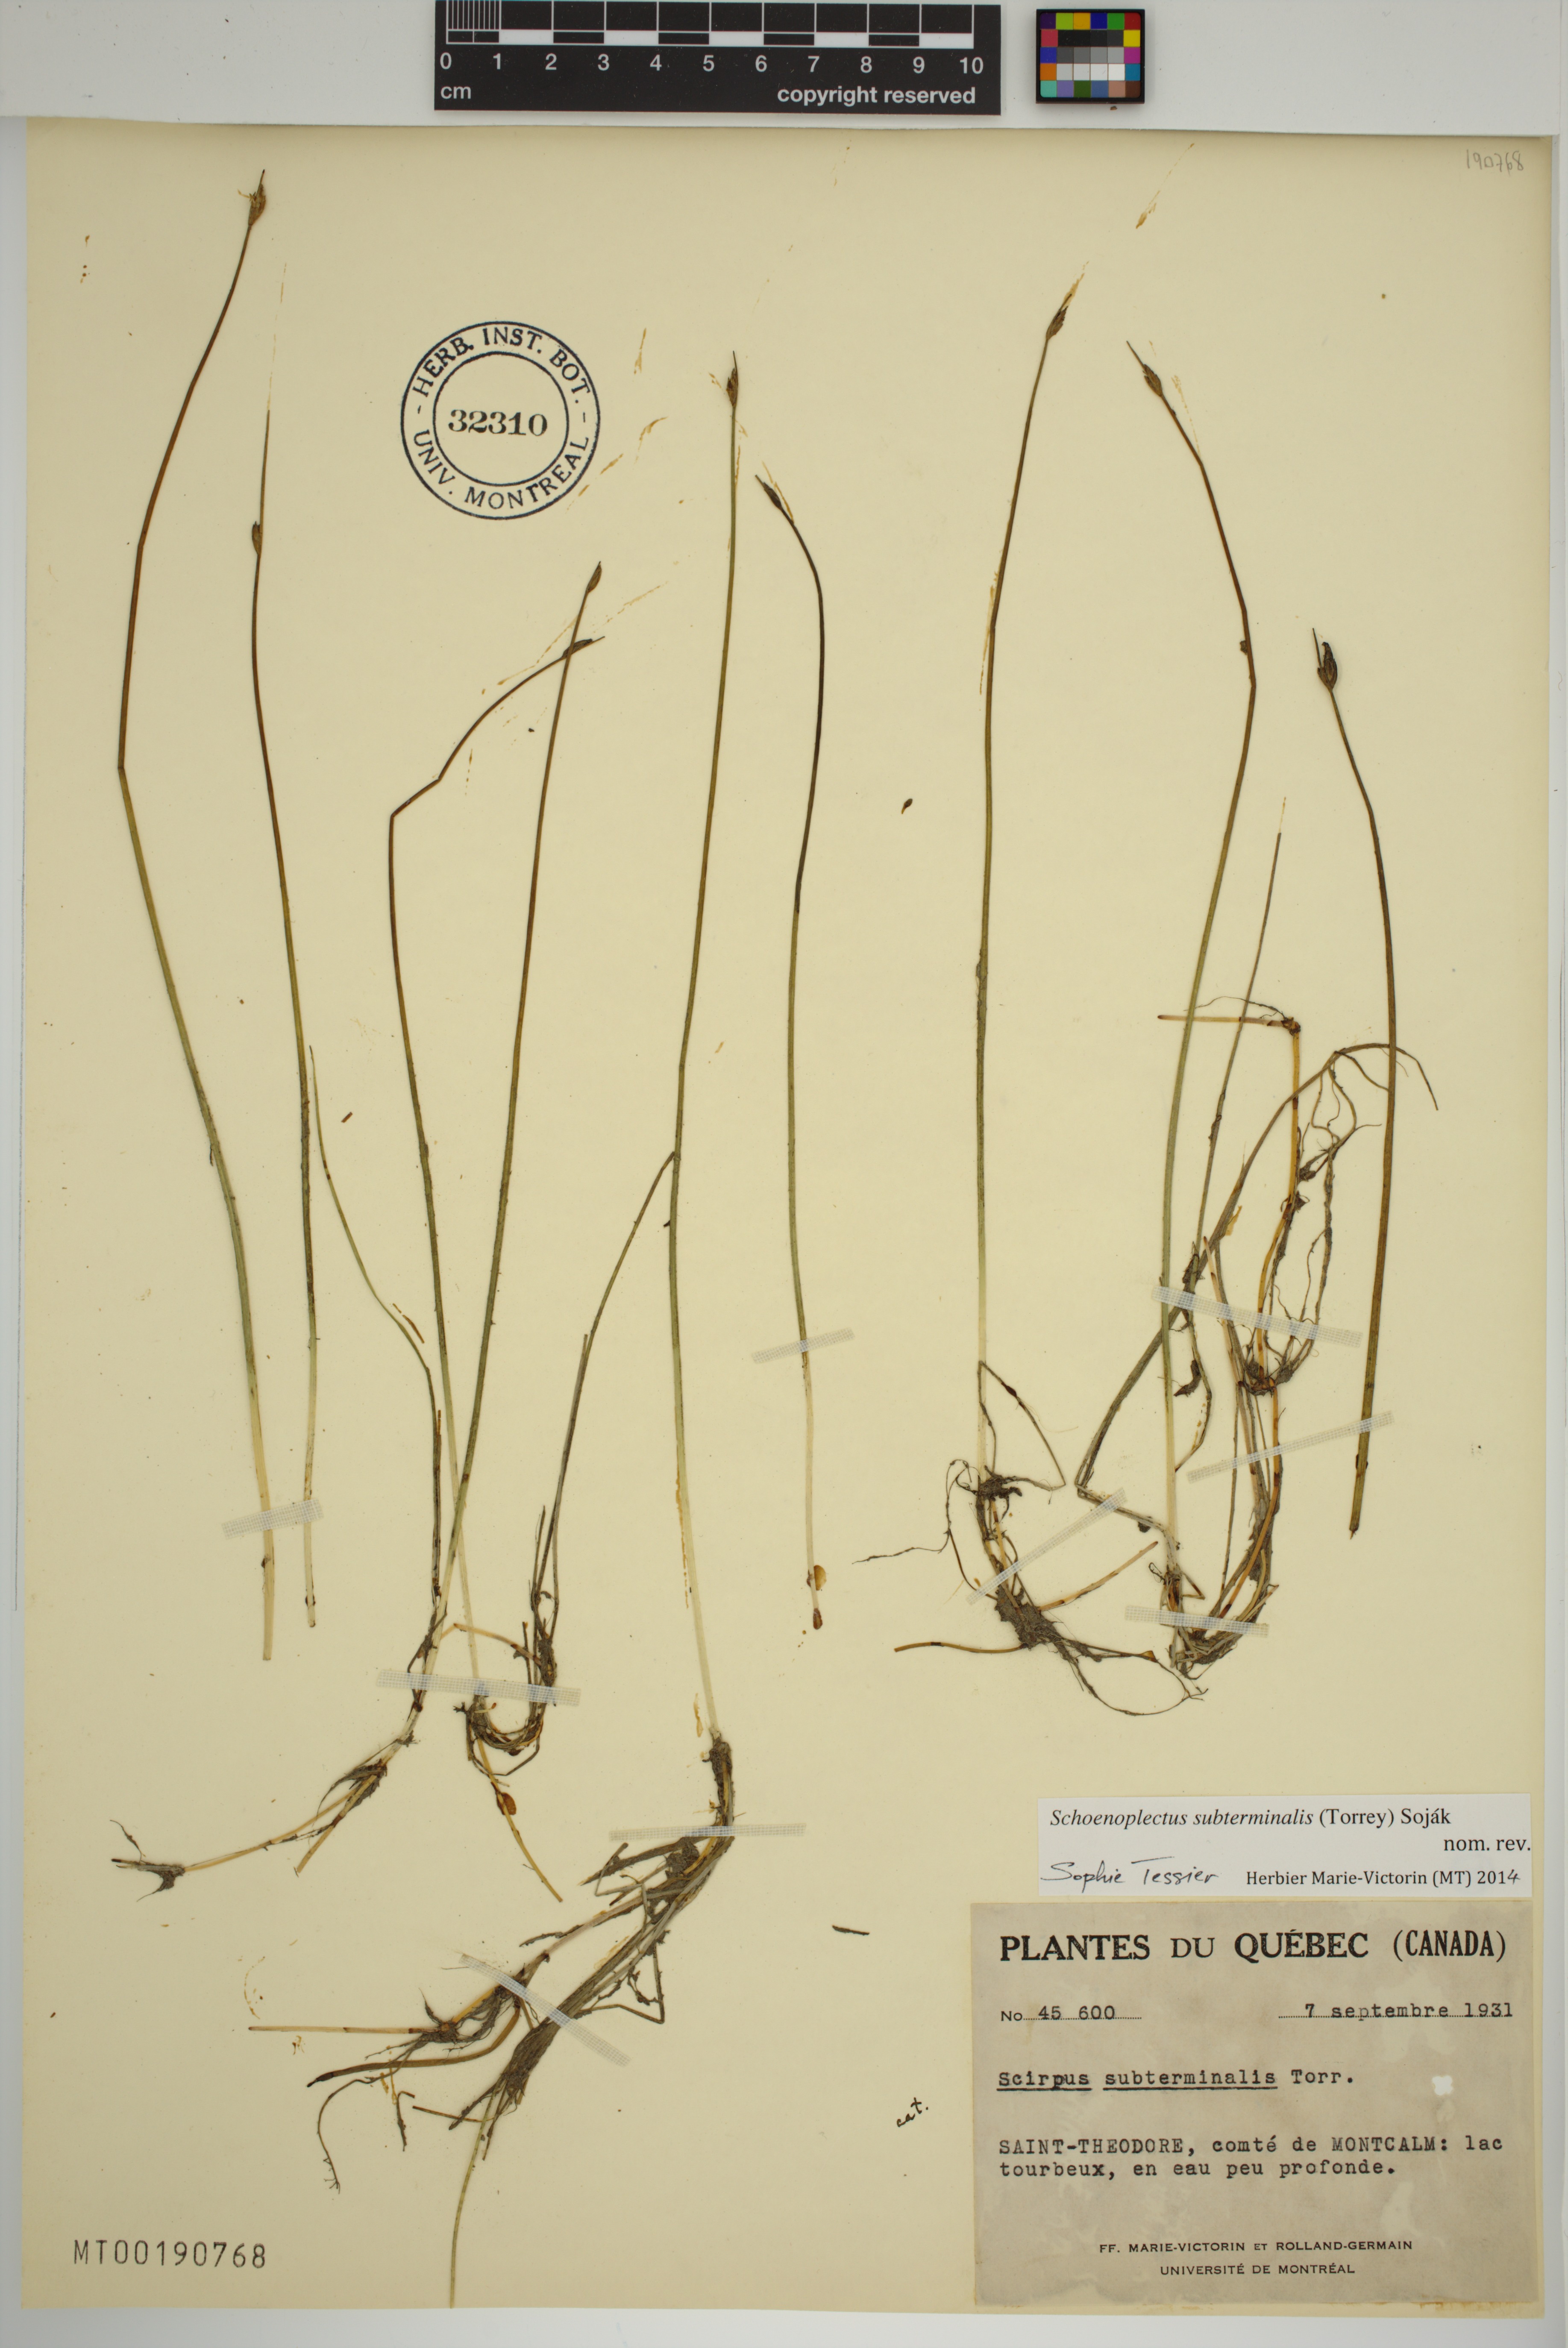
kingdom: Plantae
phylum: Tracheophyta
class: Liliopsida
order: Poales
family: Cyperaceae
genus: Schoenoplectus
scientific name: Schoenoplectus subterminalis
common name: Swaying bulrush
